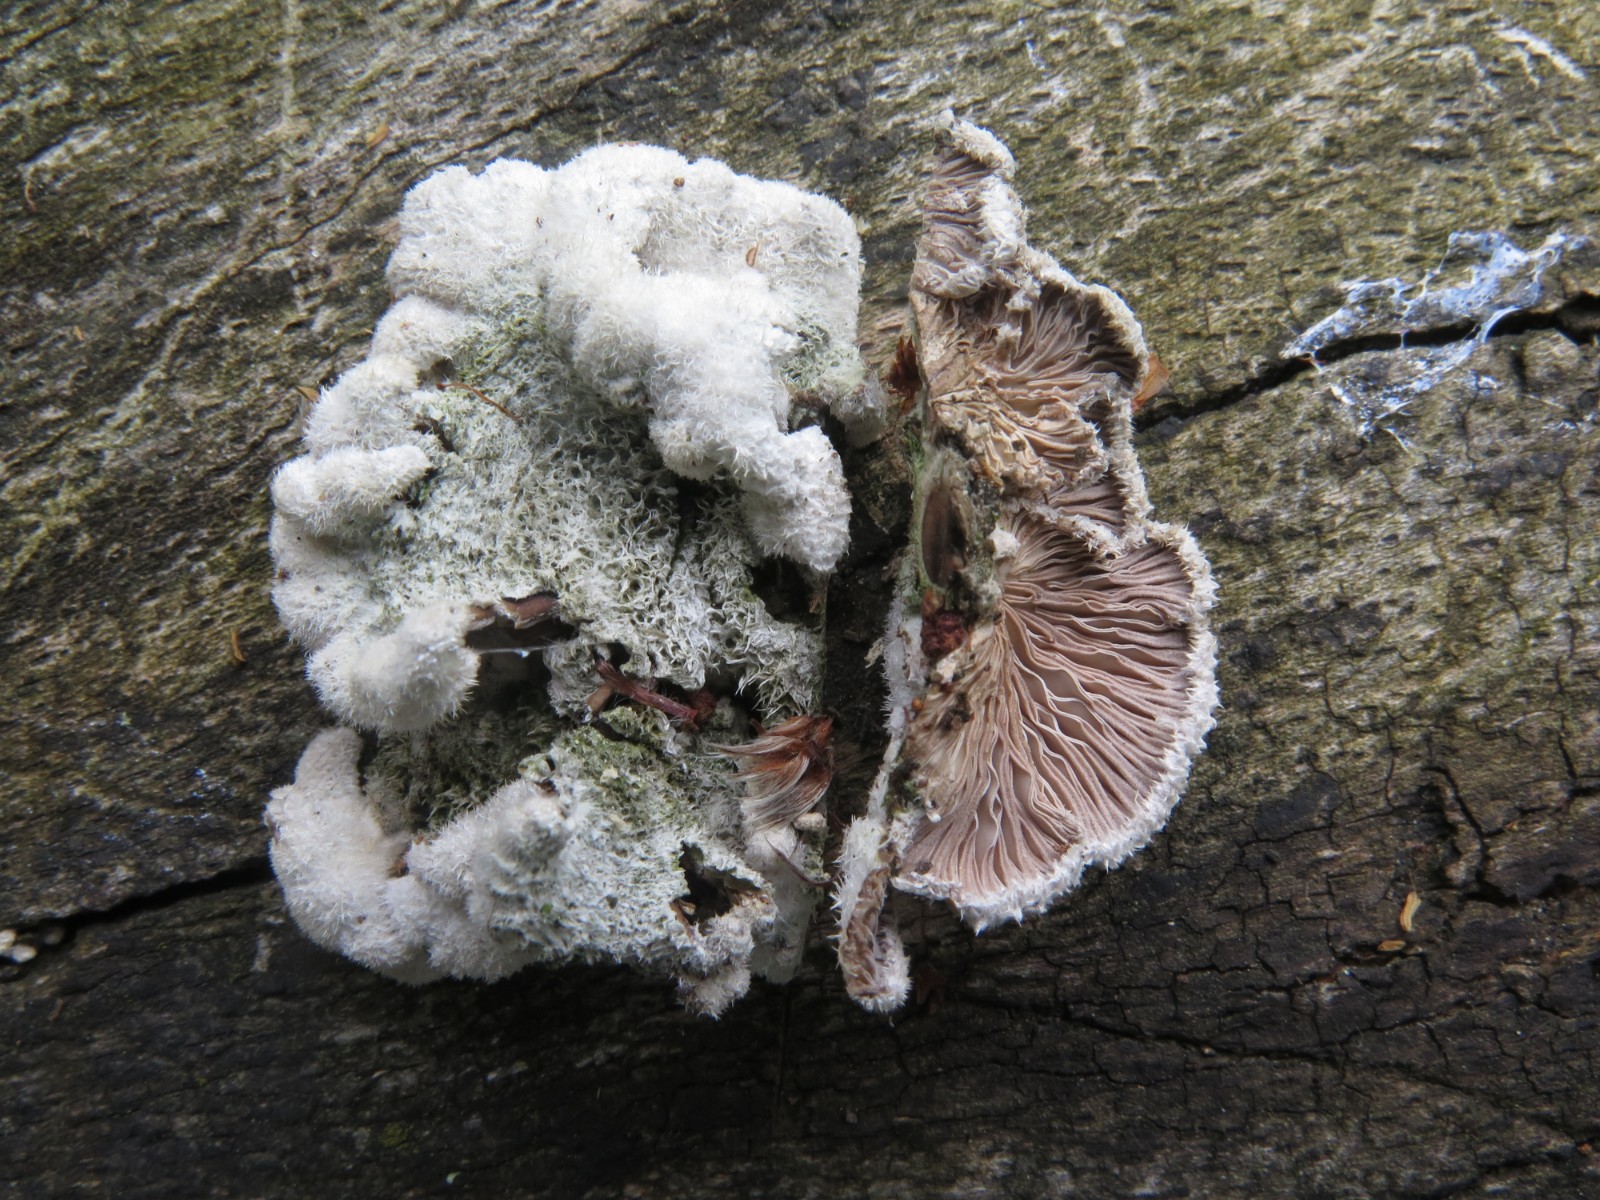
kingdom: Fungi
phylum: Basidiomycota
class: Agaricomycetes
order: Agaricales
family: Schizophyllaceae
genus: Schizophyllum
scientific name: Schizophyllum commune
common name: kløvblad
